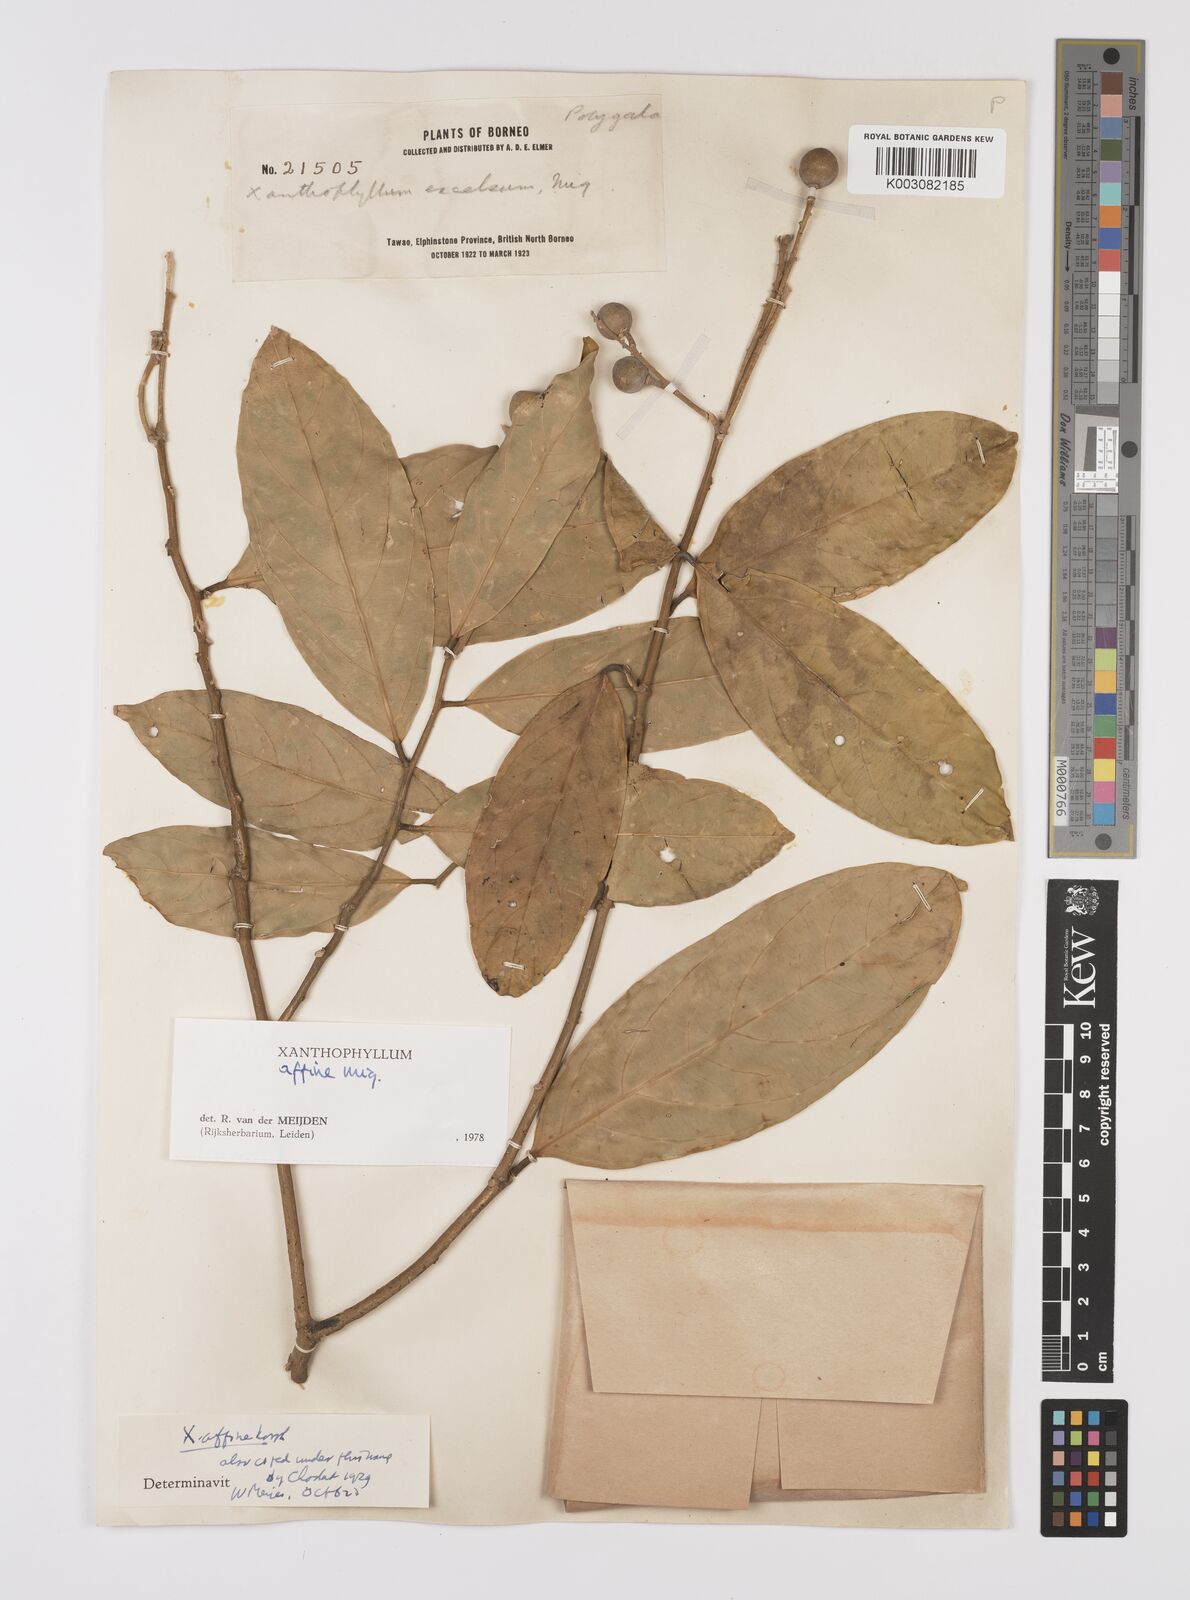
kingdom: Plantae
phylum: Tracheophyta
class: Magnoliopsida
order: Fabales
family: Polygalaceae
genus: Xanthophyllum
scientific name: Xanthophyllum flavescens
